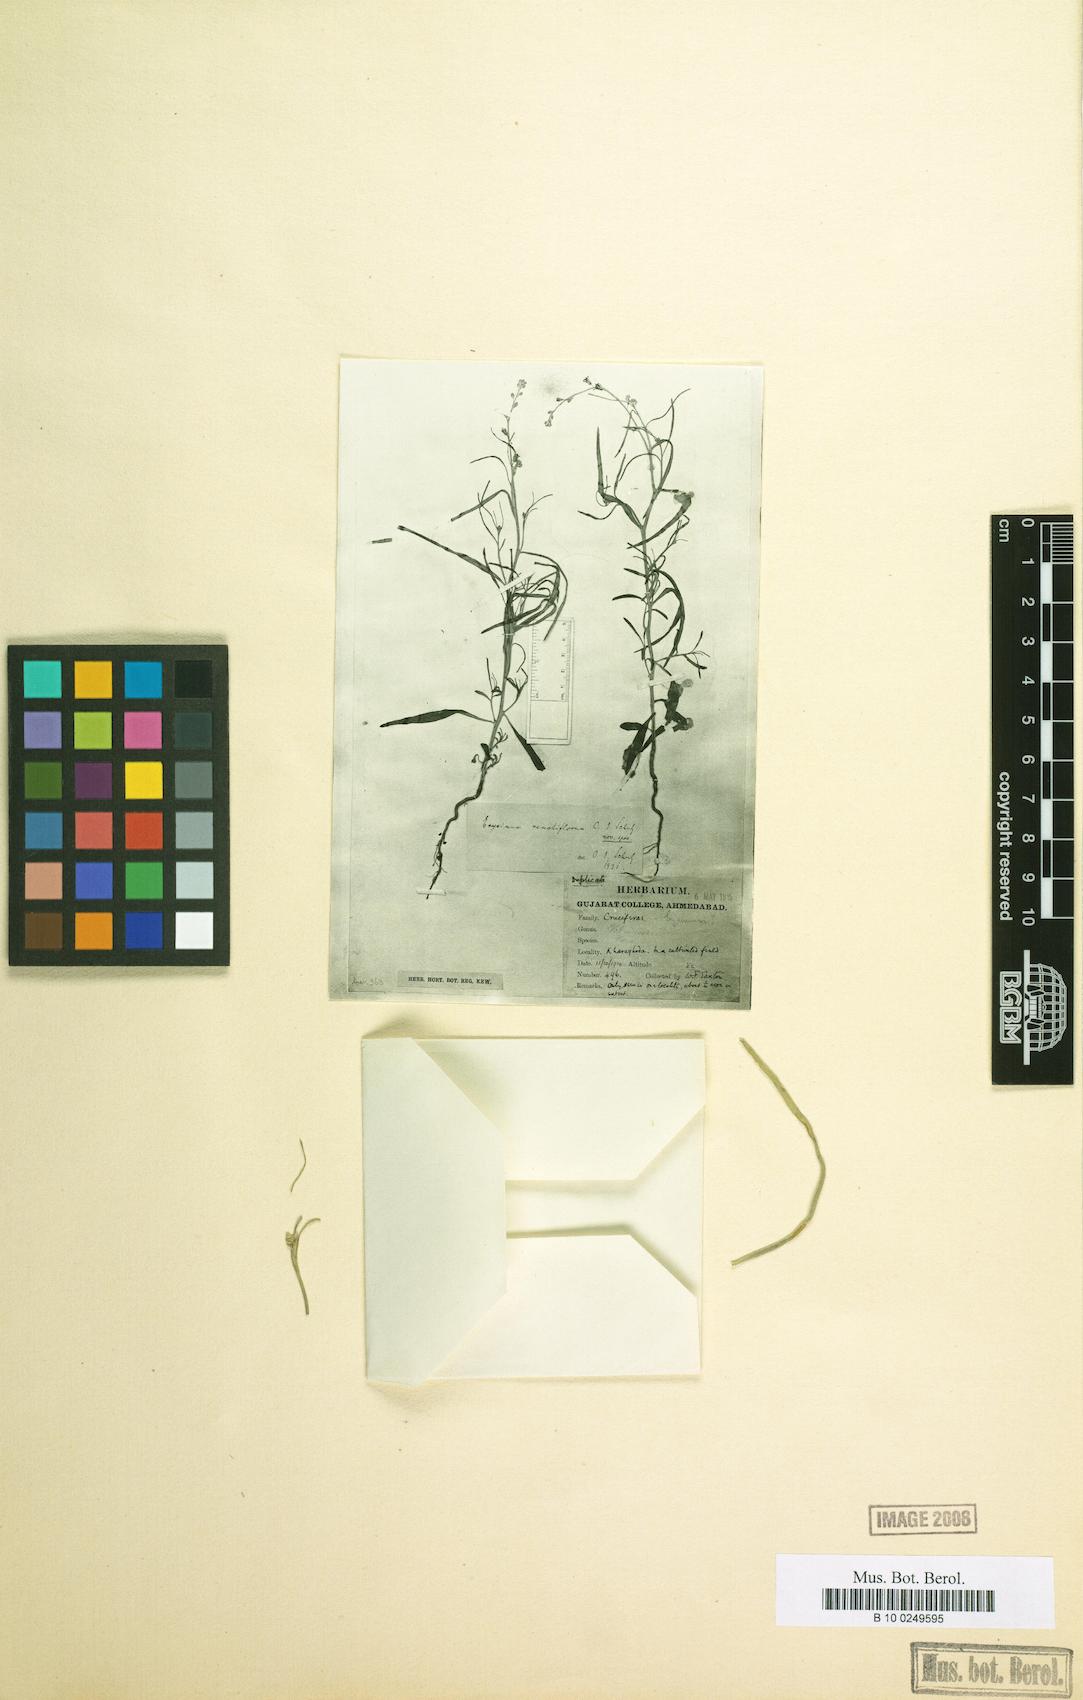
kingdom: Plantae
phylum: Tracheophyta
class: Magnoliopsida
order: Brassicales
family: Brassicaceae
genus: Farsetia
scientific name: Farsetia stylosa
